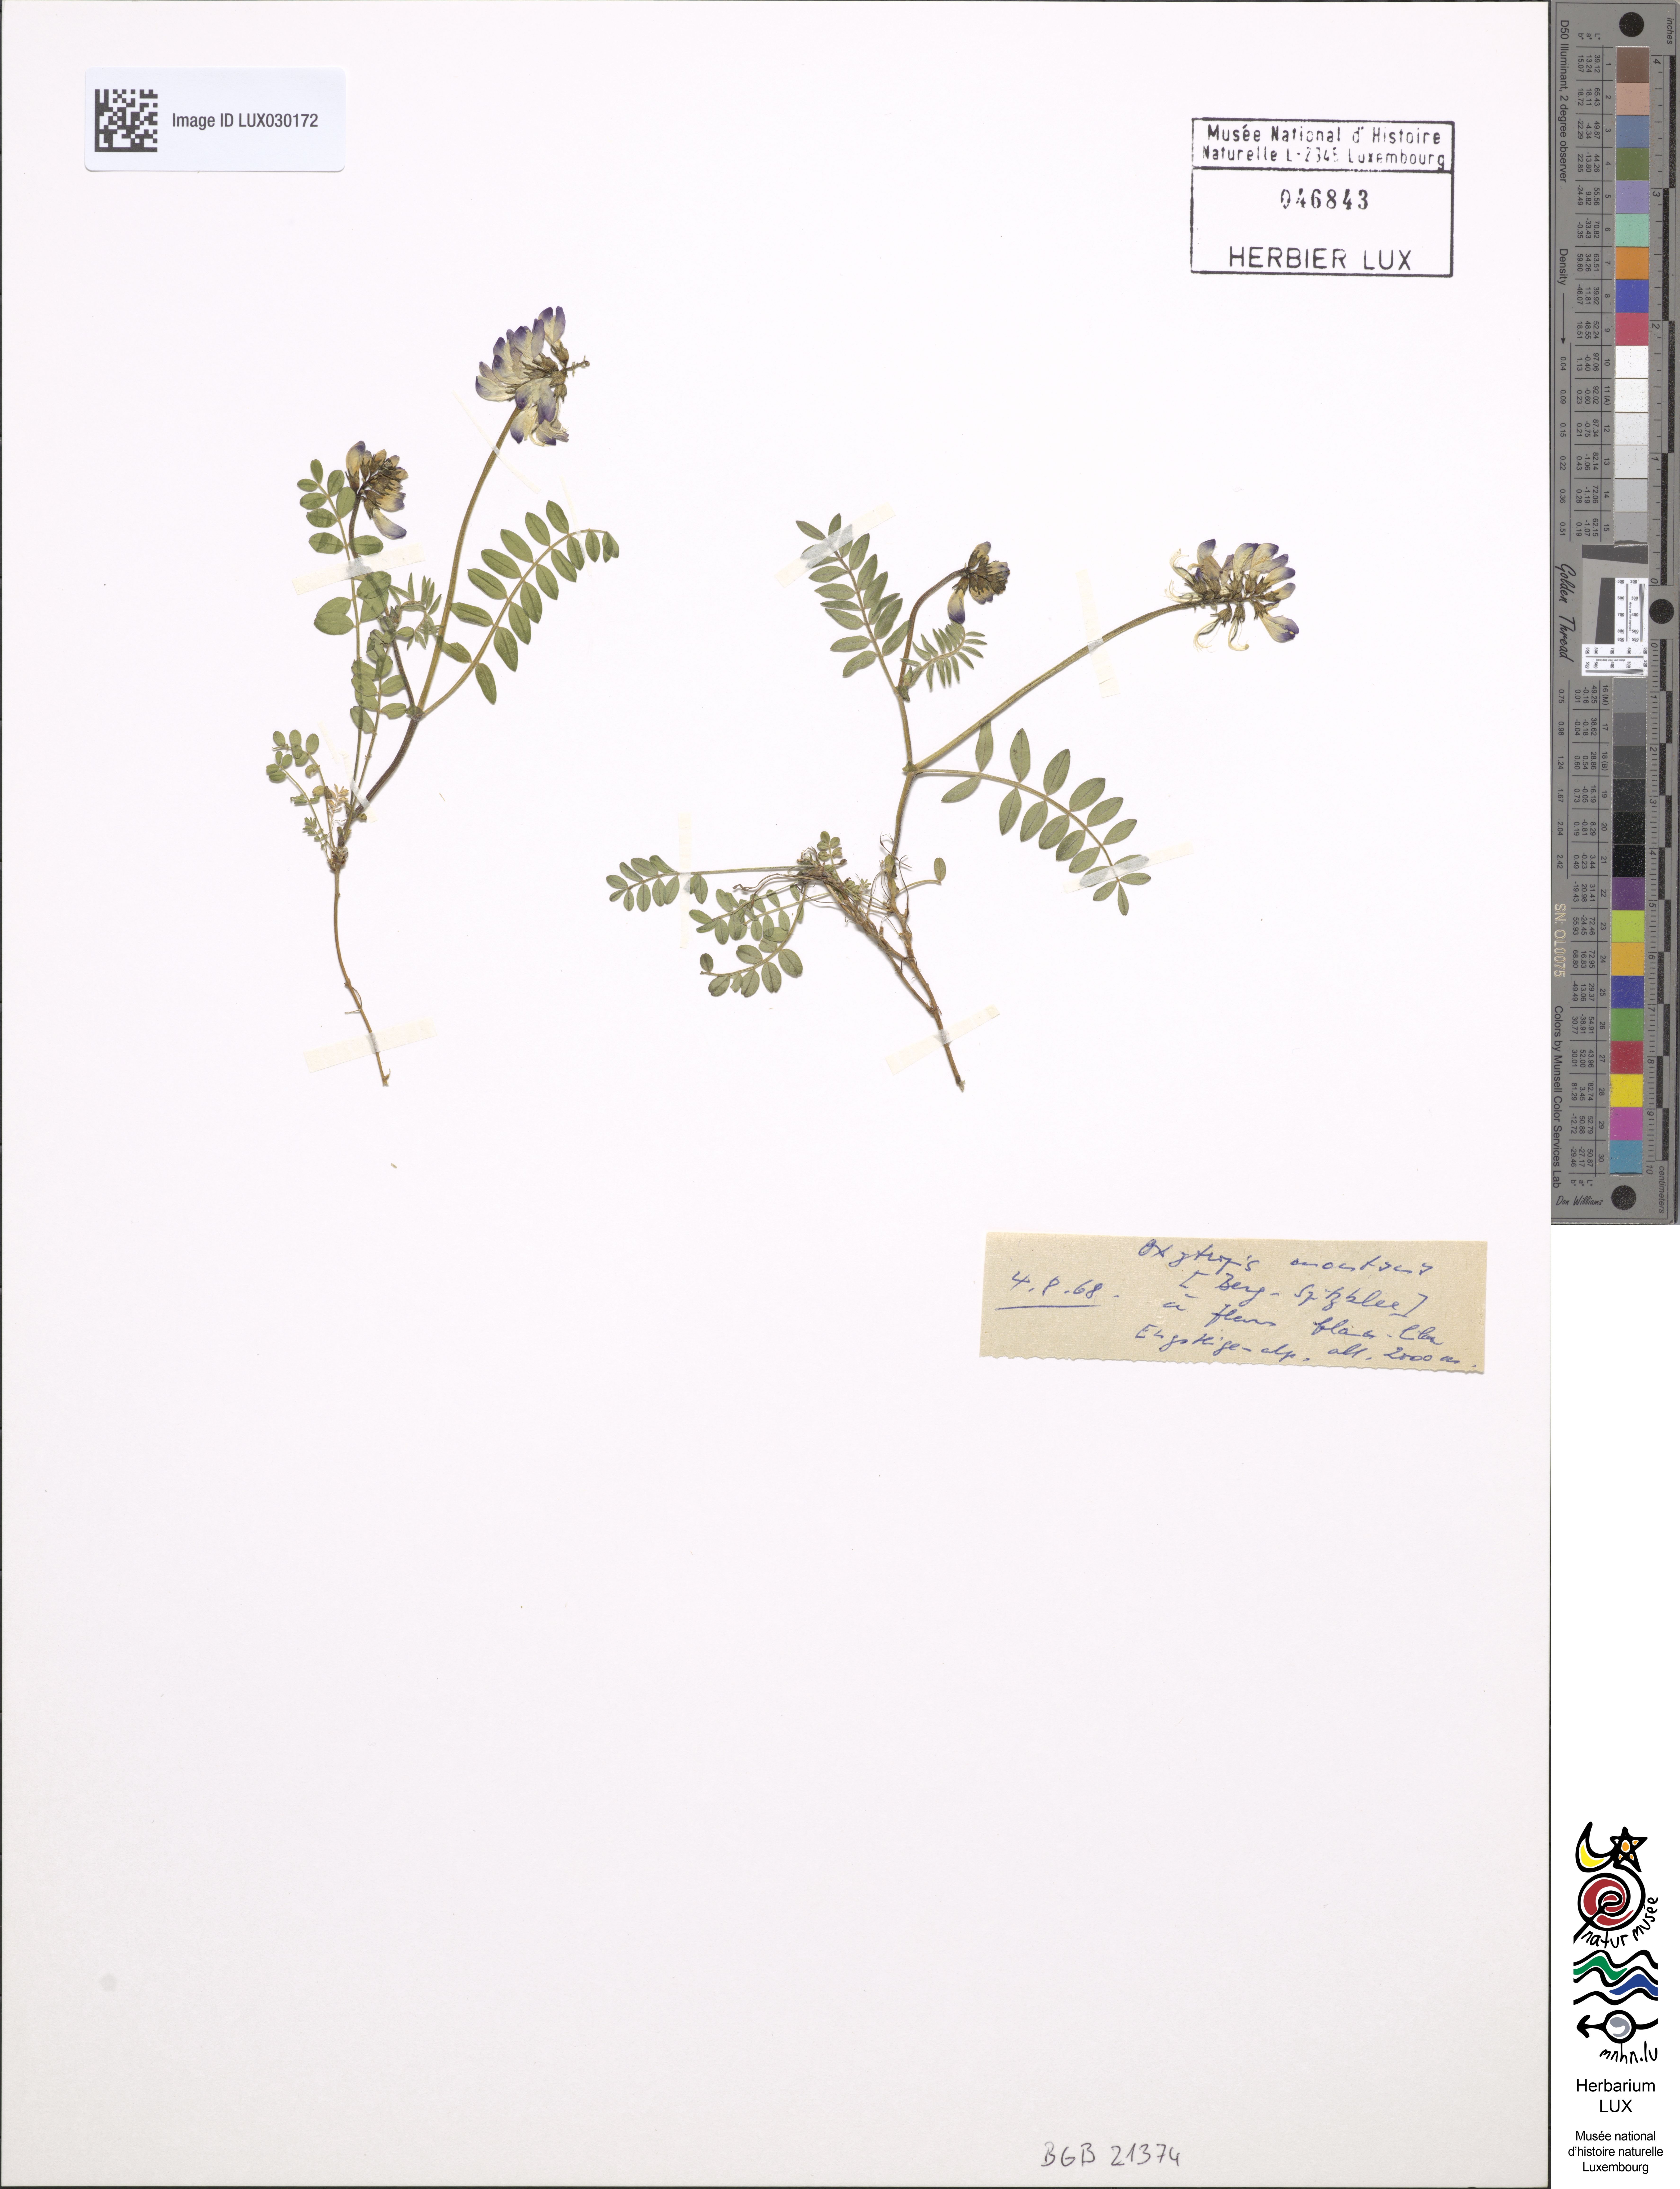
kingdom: Plantae
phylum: Tracheophyta
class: Magnoliopsida
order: Fabales
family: Fabaceae
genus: Oxytropis
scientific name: Oxytropis montana
